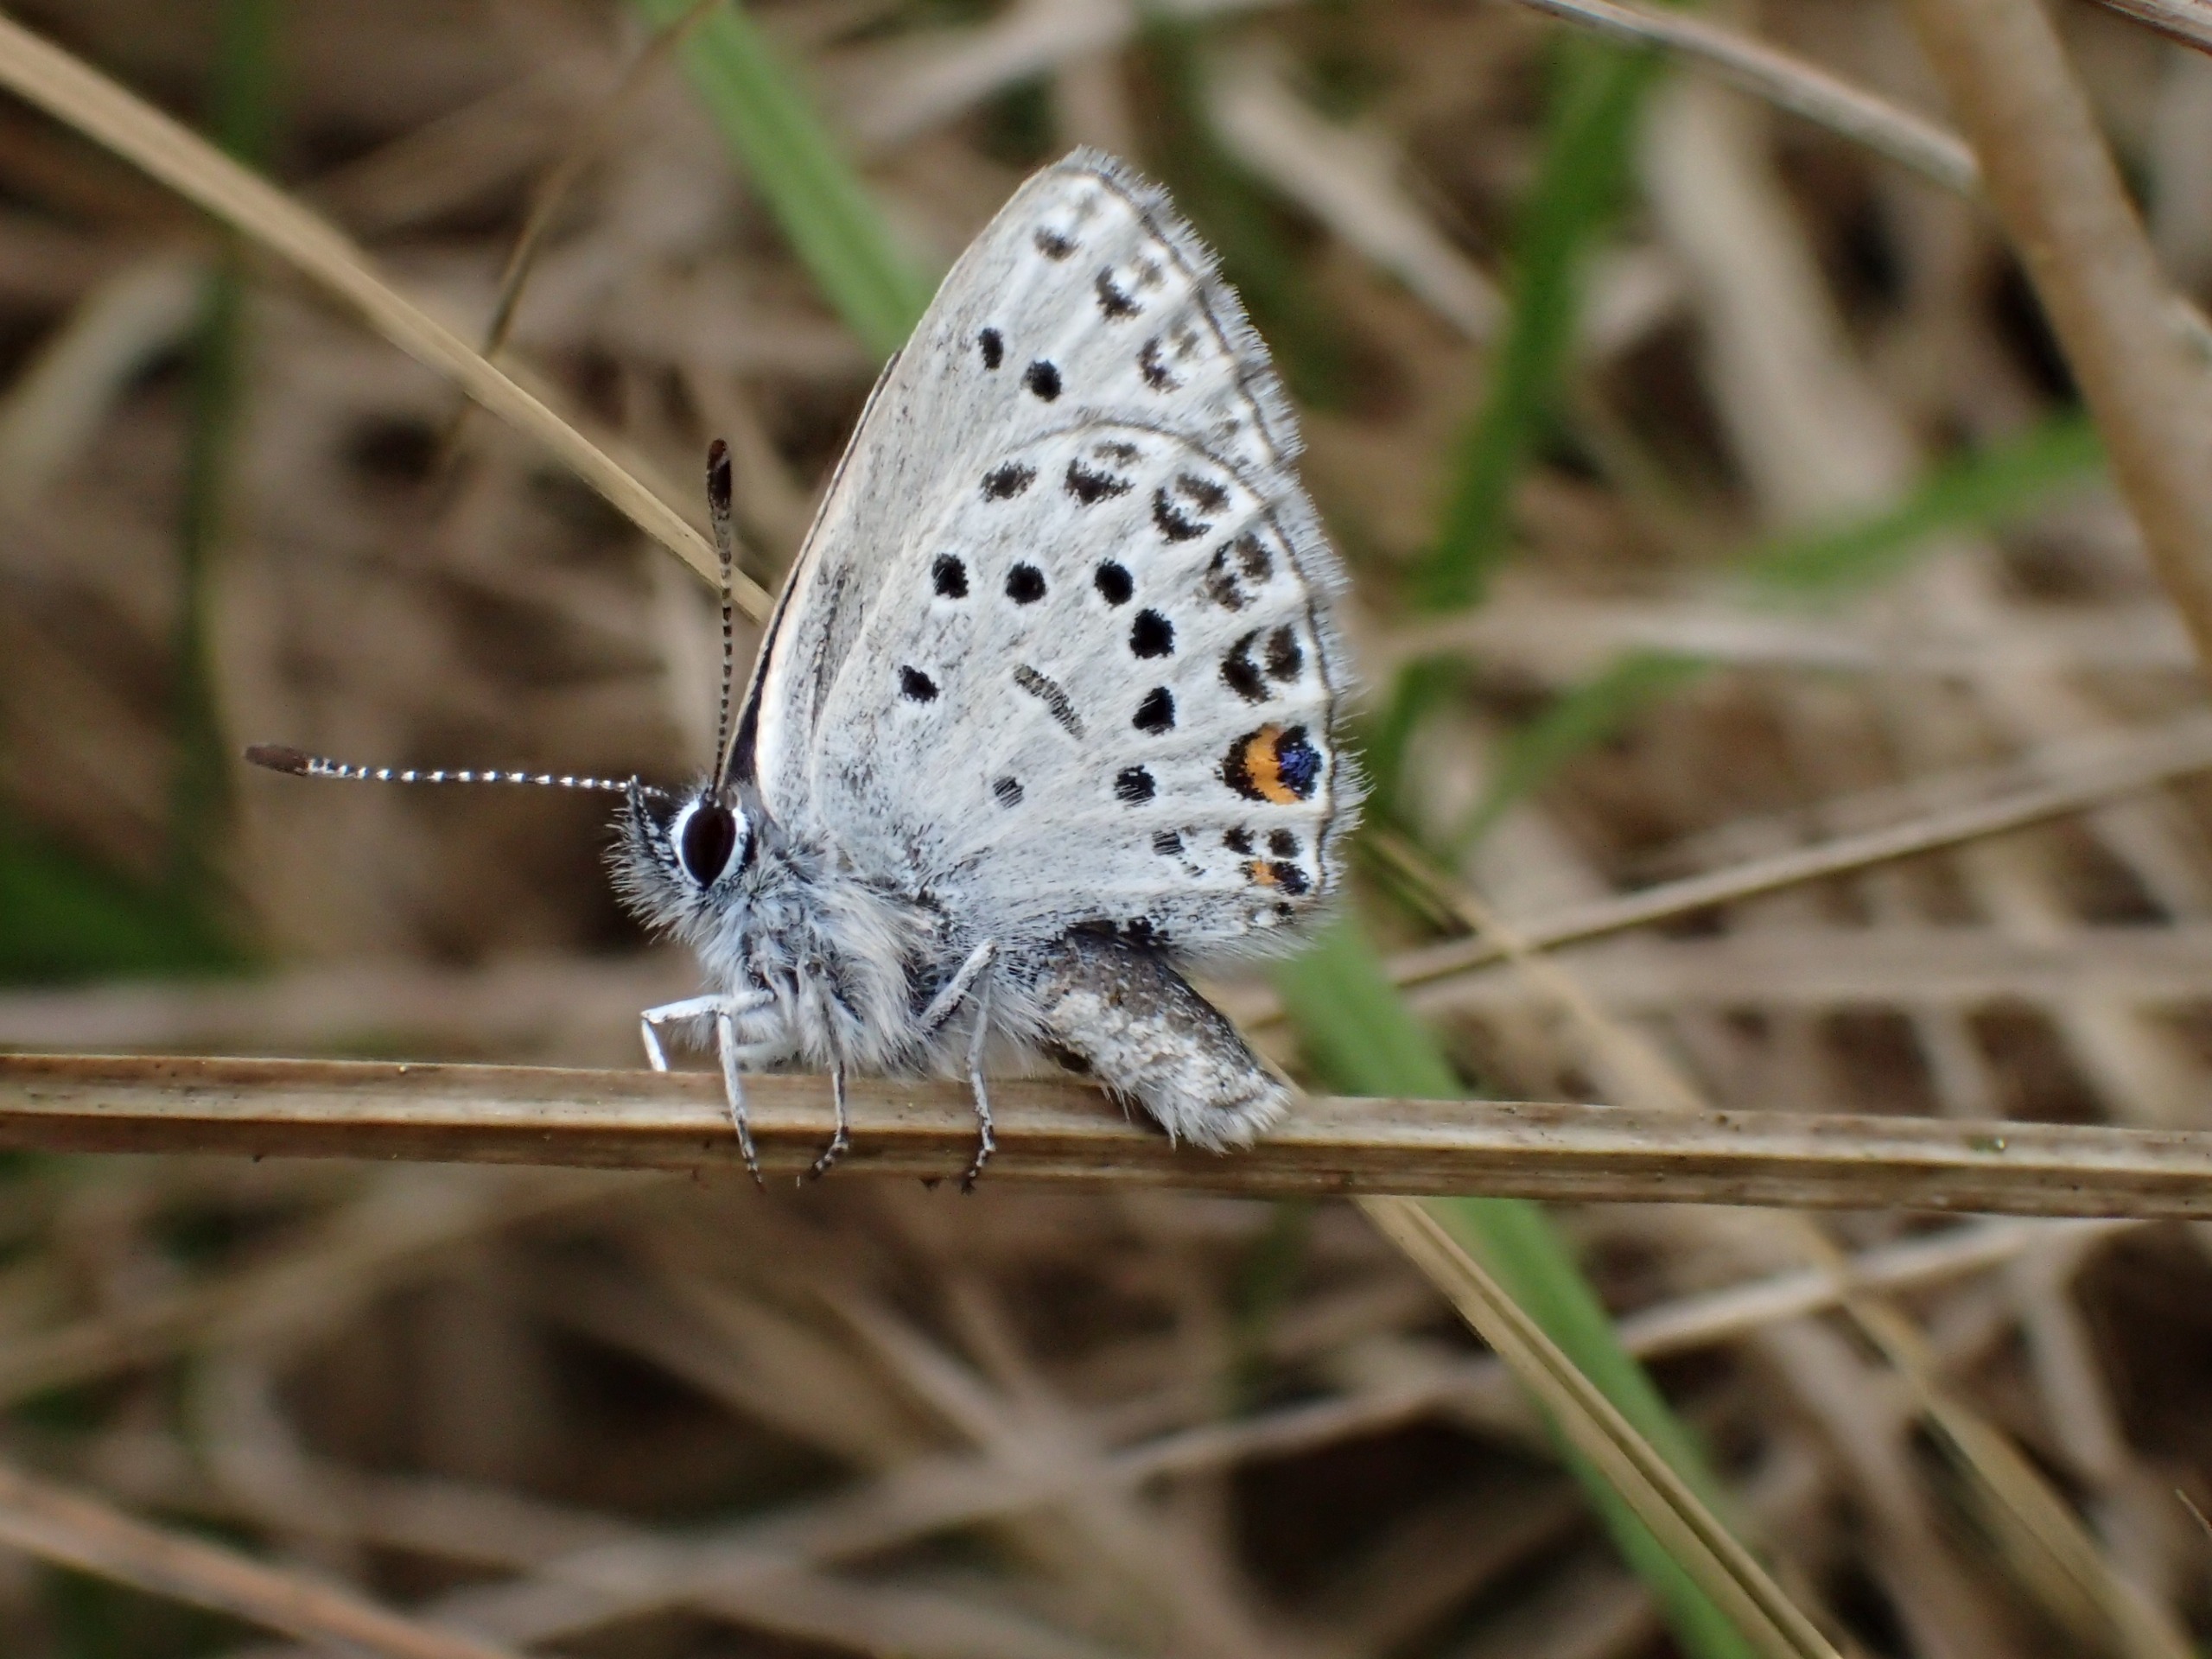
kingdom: Animalia
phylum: Arthropoda
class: Insecta
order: Lepidoptera
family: Lycaenidae
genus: Vacciniina
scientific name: Vacciniina optilete
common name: Bølleblåfugl
